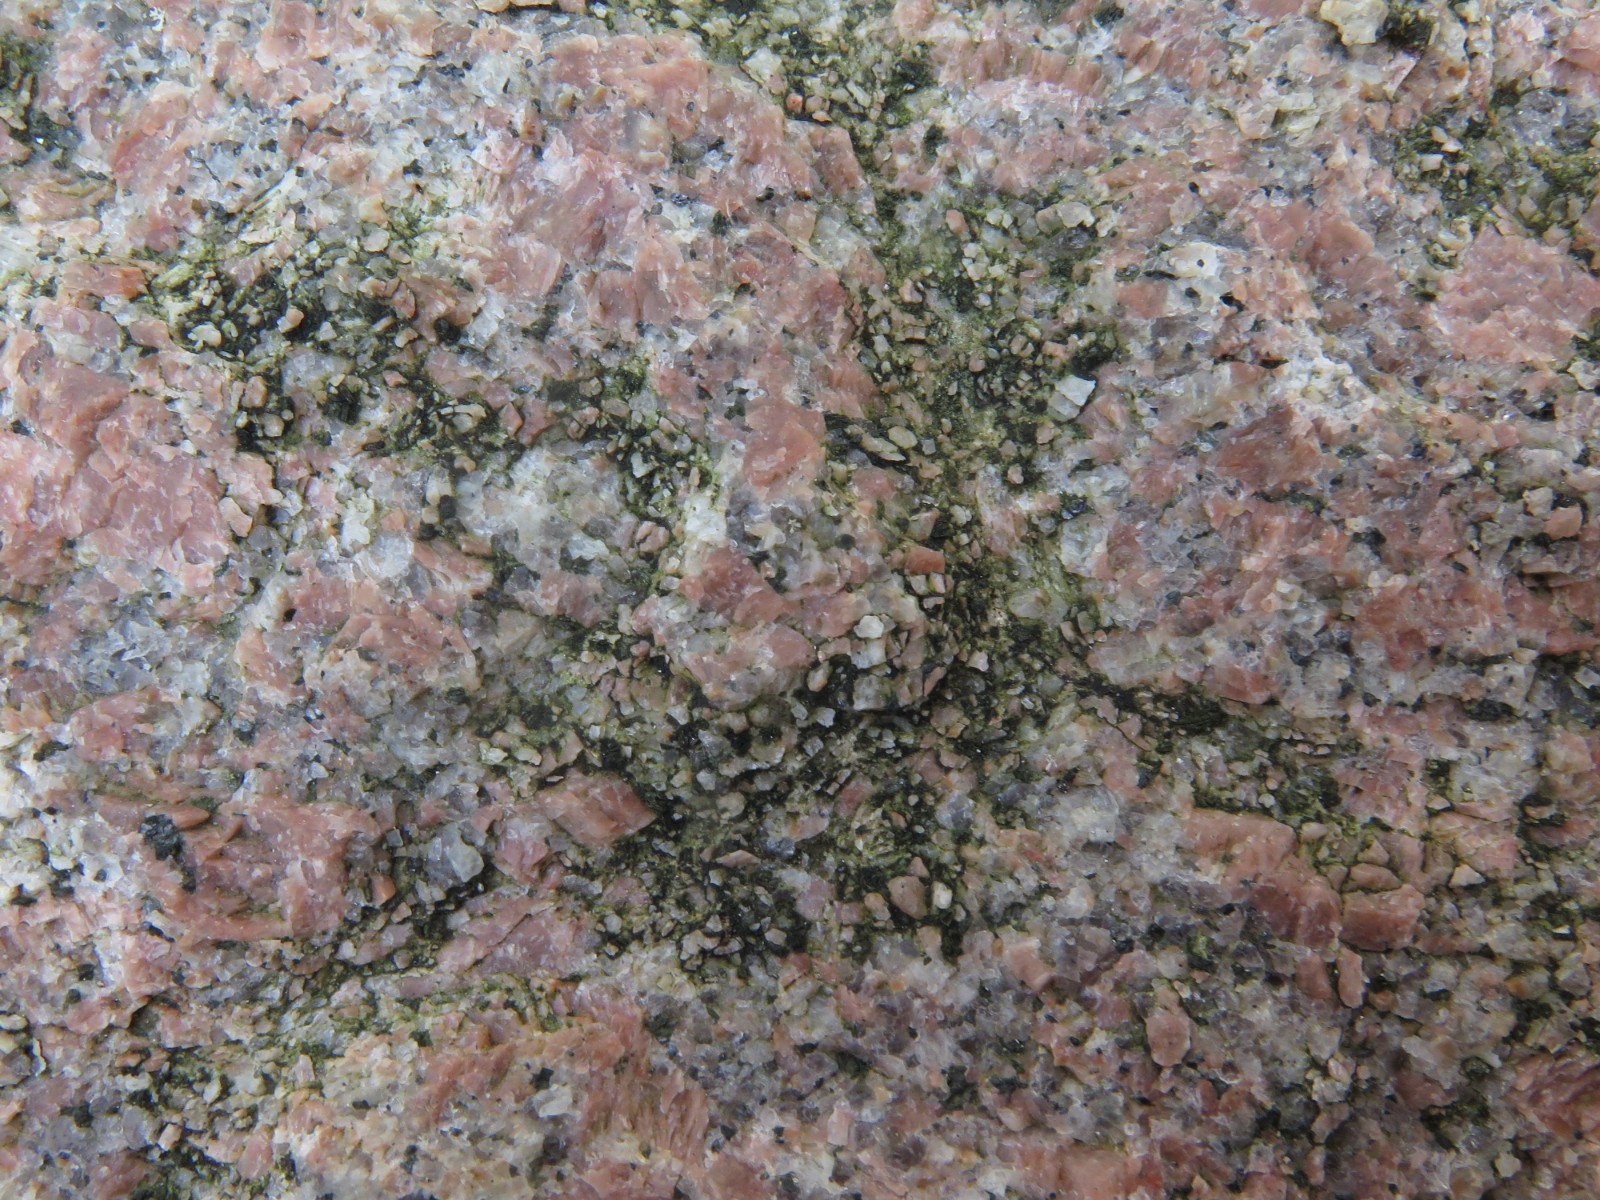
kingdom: Fungi
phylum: Ascomycota
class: Lecanoromycetes
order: Acarosporales
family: Acarosporaceae
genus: Acarospora
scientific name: Acarospora privigna
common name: sort foldekantlav
